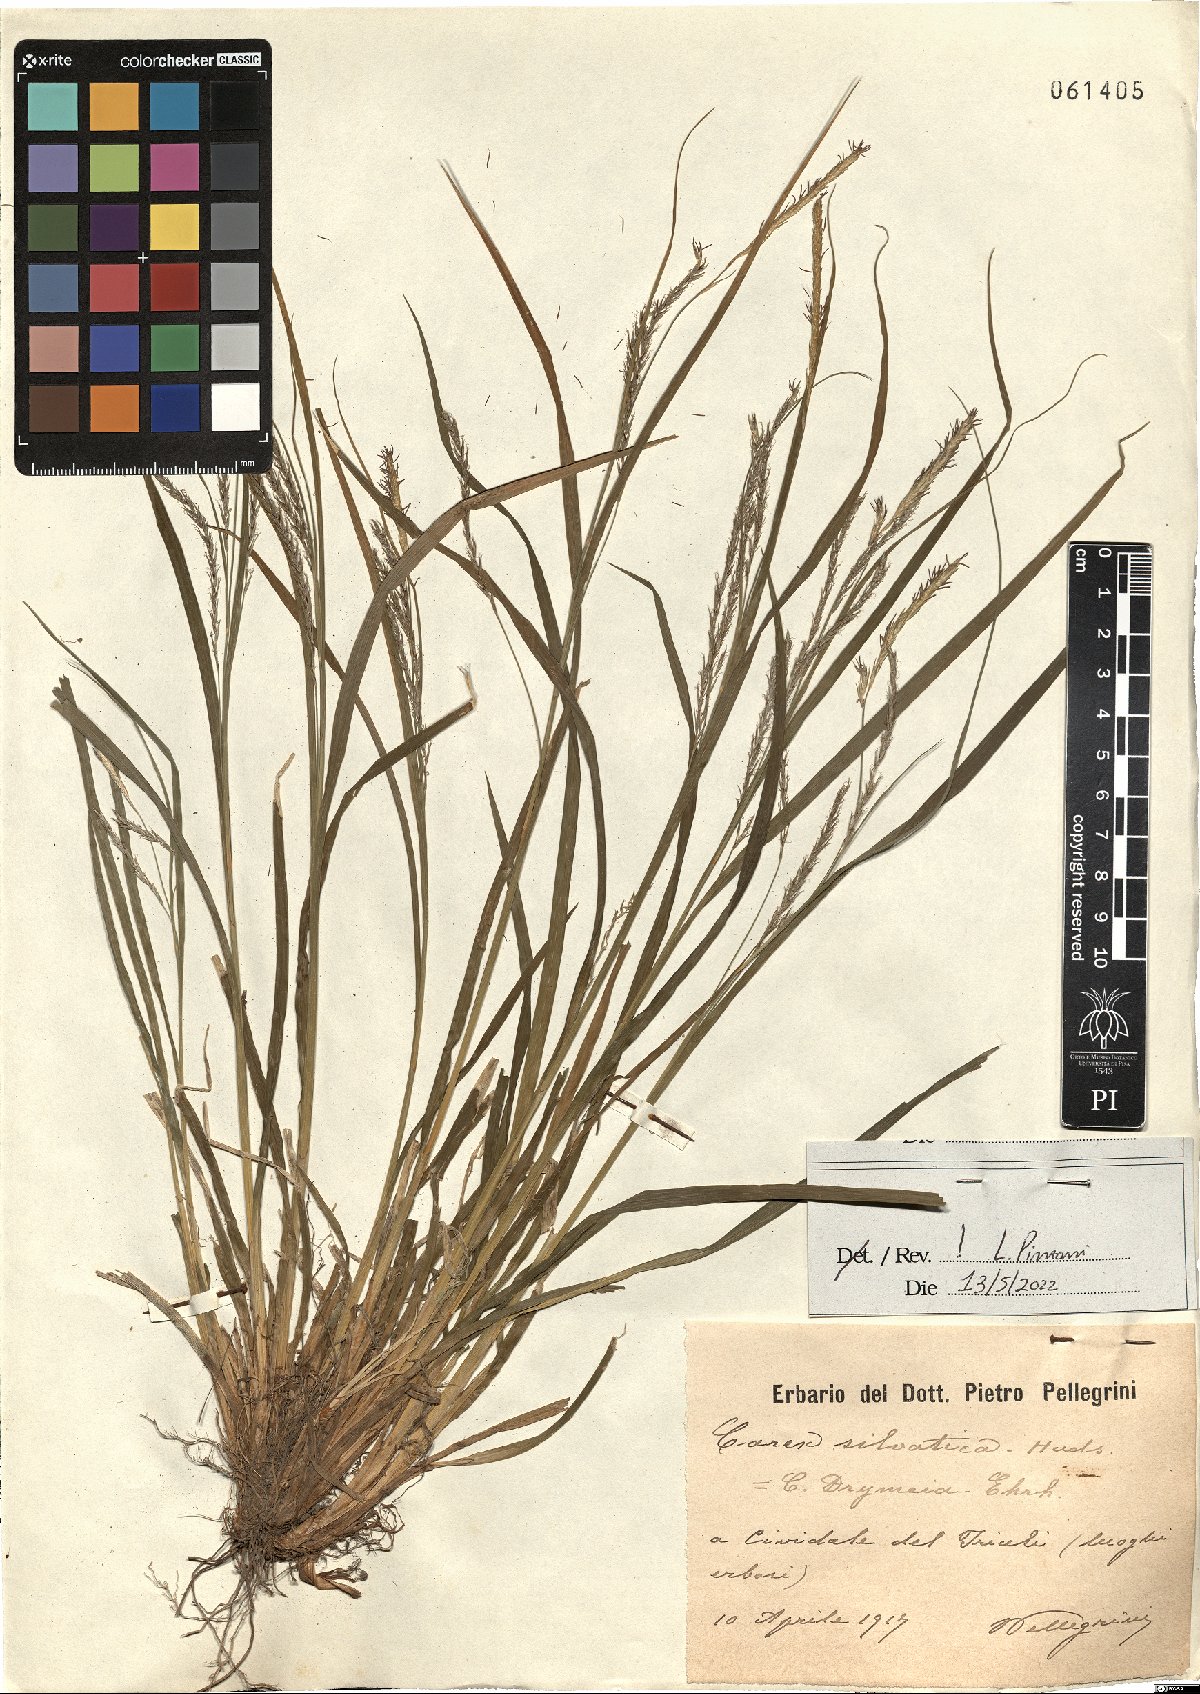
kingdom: Plantae
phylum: Tracheophyta
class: Liliopsida
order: Poales
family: Cyperaceae
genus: Carex
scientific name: Carex sylvatica
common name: Wood-sedge
